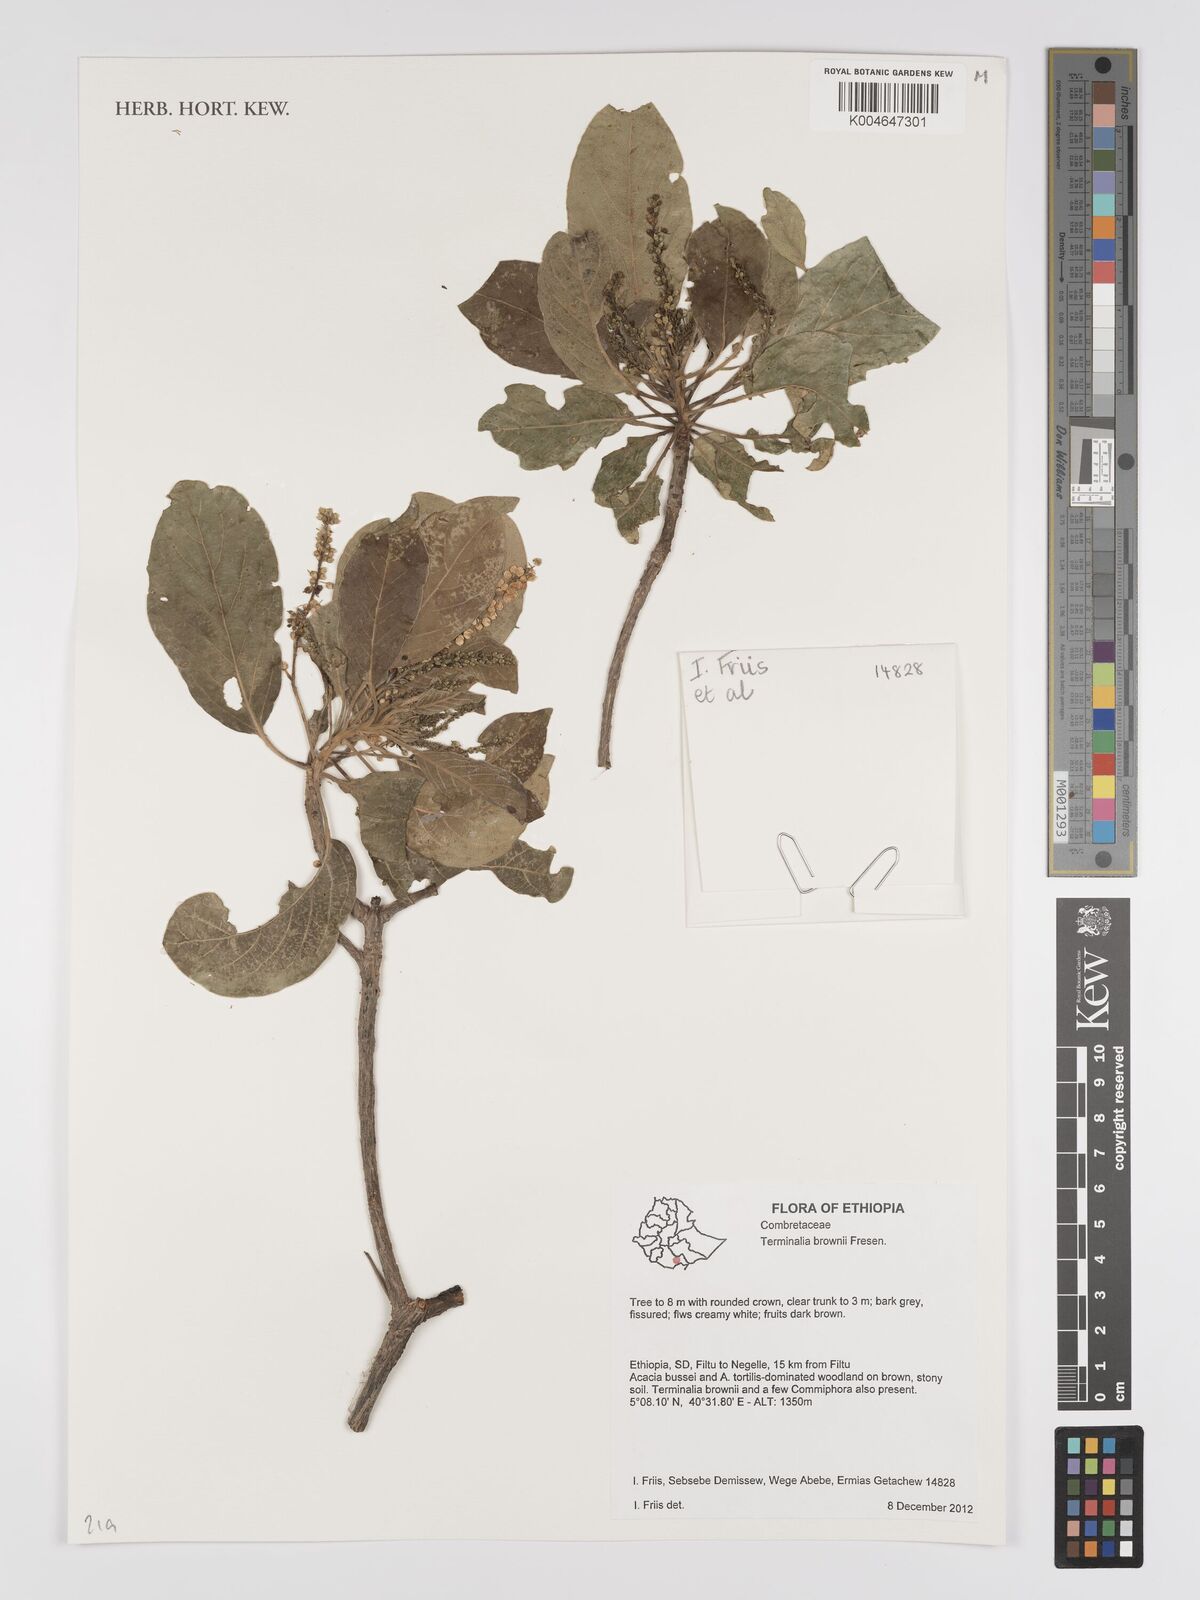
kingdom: Plantae
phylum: Tracheophyta
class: Magnoliopsida
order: Myrtales
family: Combretaceae
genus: Terminalia
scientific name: Terminalia brownii
